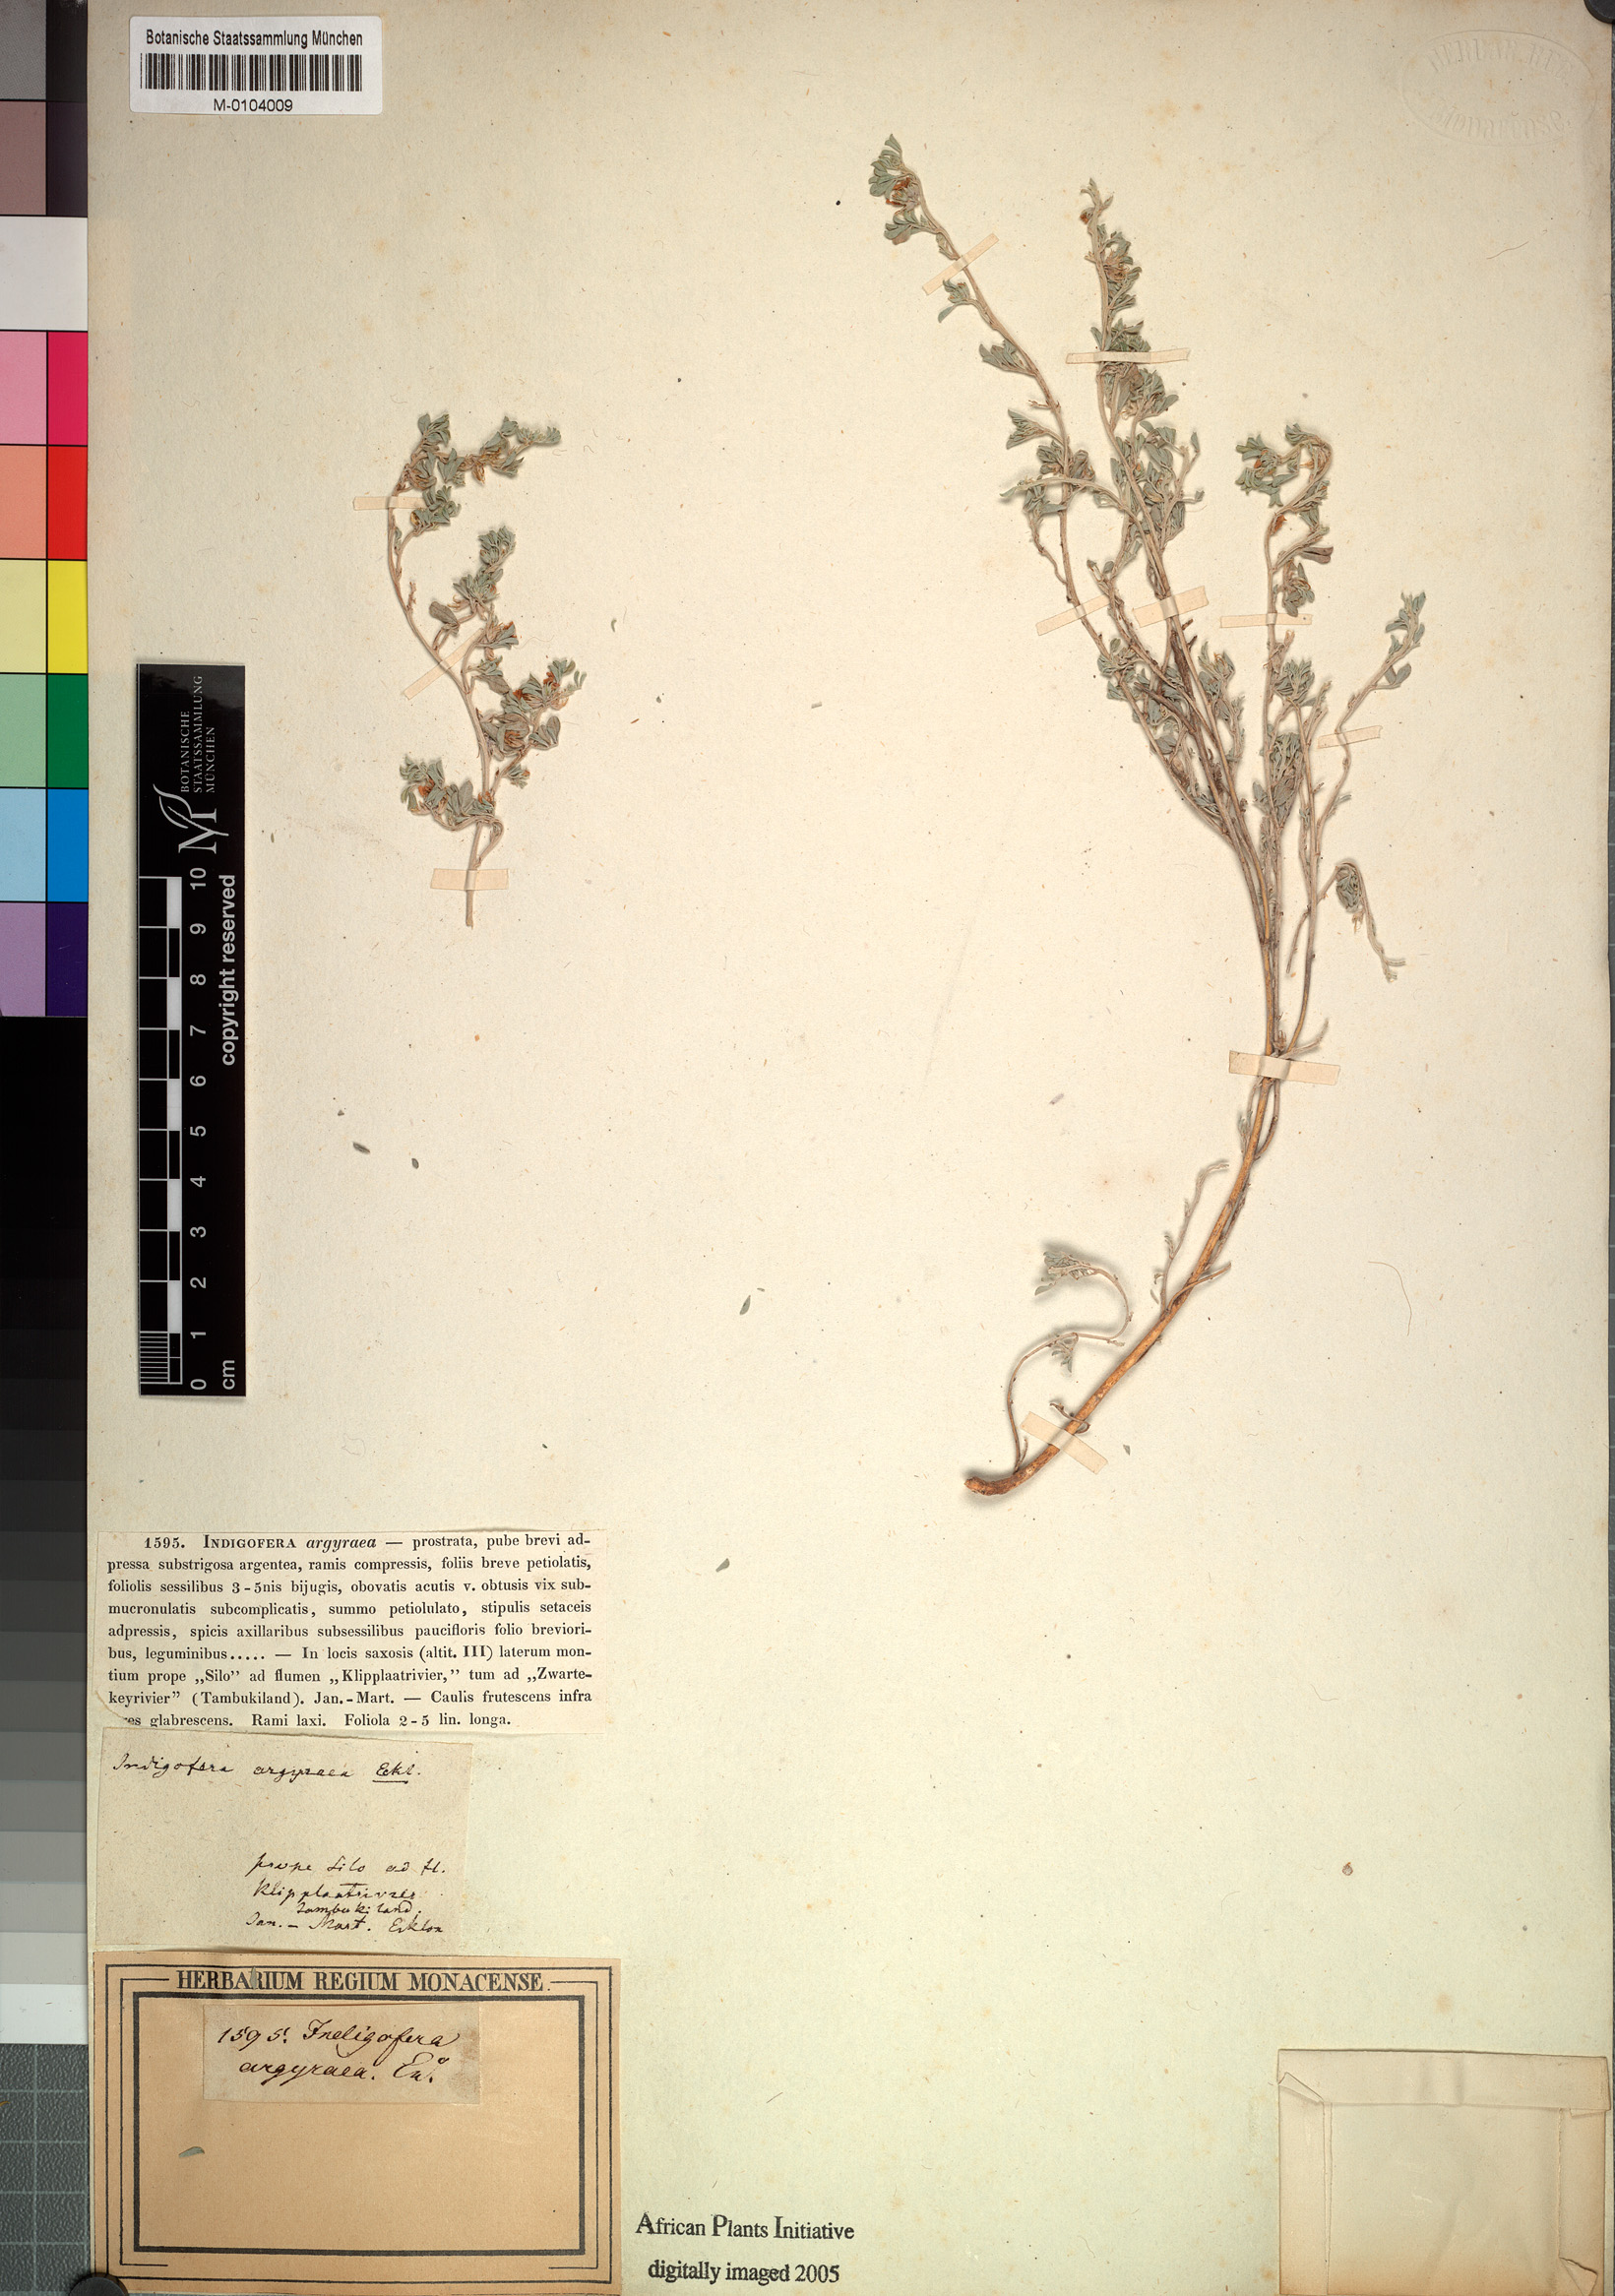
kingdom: Plantae
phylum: Tracheophyta
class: Magnoliopsida
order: Fabales
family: Fabaceae
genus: Indigastrum
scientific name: Indigastrum niveum
